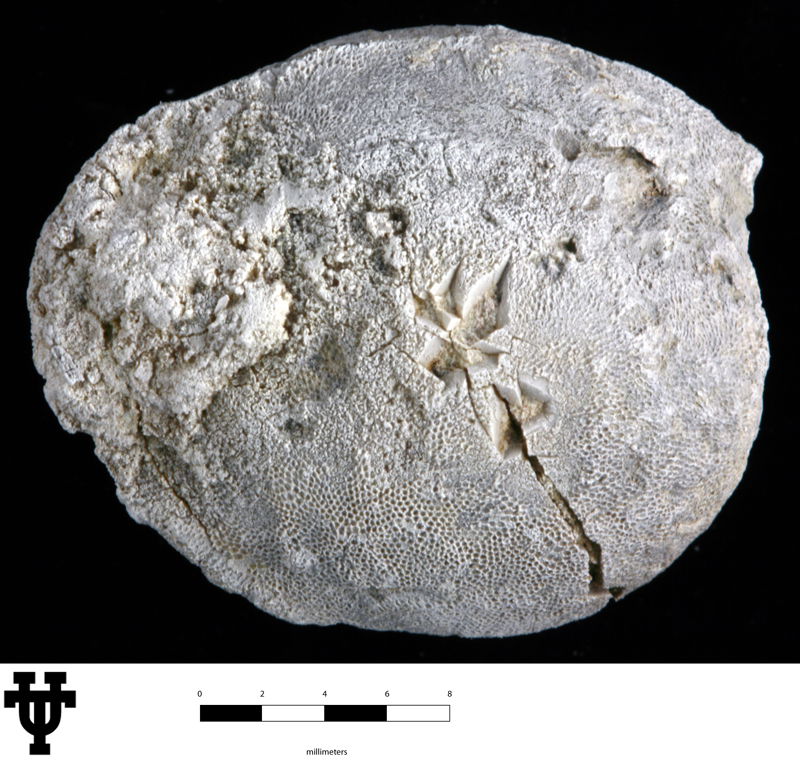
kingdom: Animalia
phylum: Echinodermata
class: Crinoidea
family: Platycystitidae
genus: Globulocystites
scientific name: Globulocystites Platycystites cristatus
